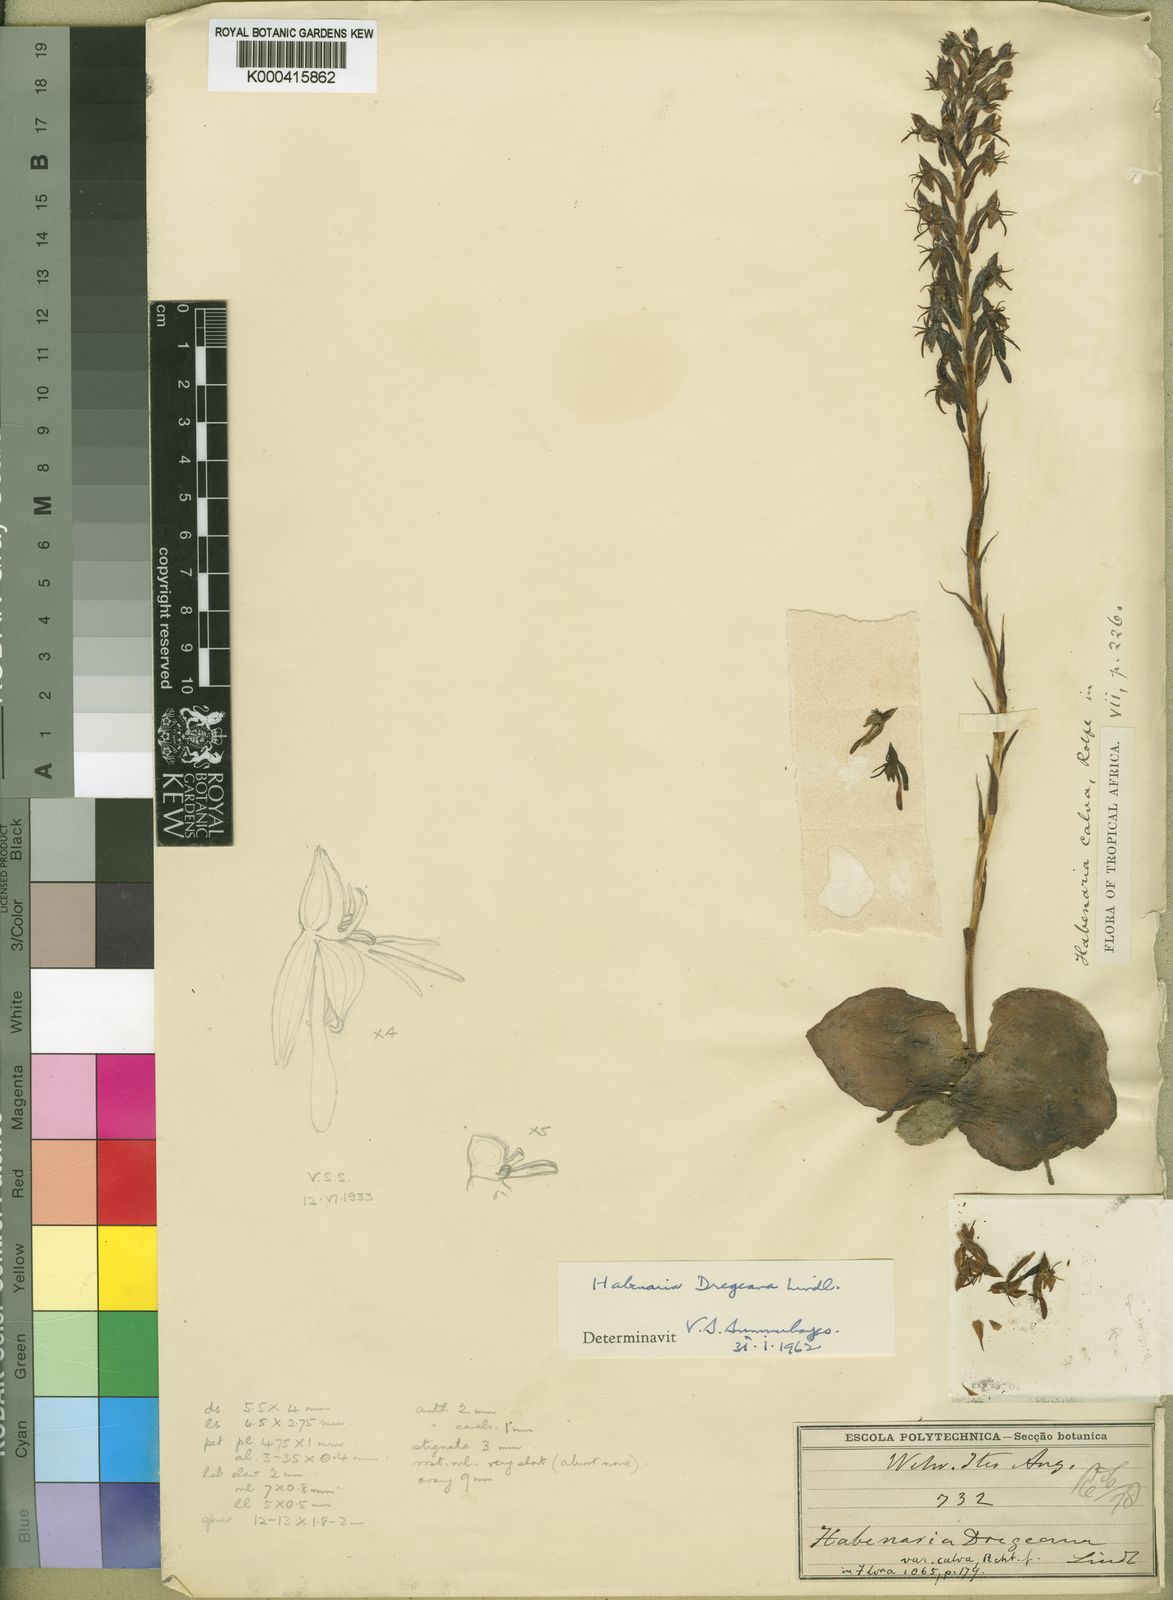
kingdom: Plantae
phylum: Tracheophyta
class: Liliopsida
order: Asparagales
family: Orchidaceae
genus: Habenaria
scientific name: Habenaria dregeana
